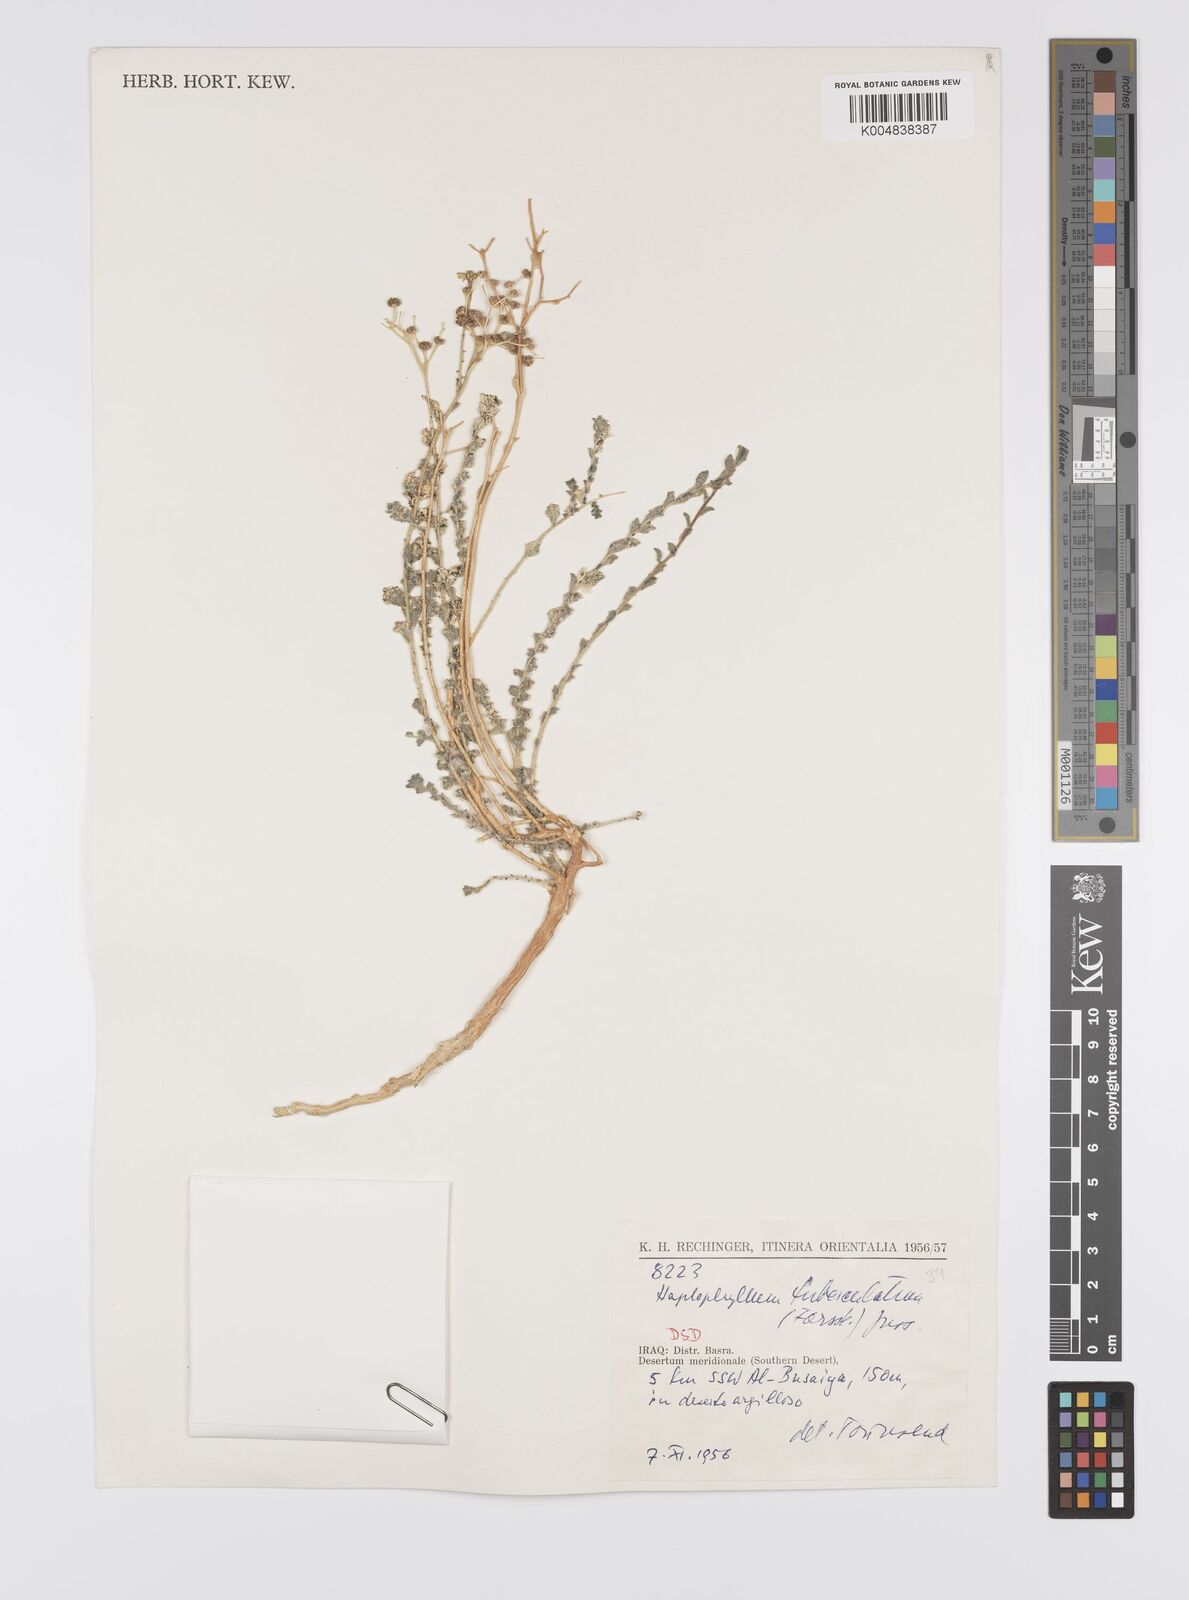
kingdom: Plantae
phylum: Tracheophyta
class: Magnoliopsida
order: Sapindales
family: Rutaceae
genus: Haplophyllum
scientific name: Haplophyllum tuberculatum
